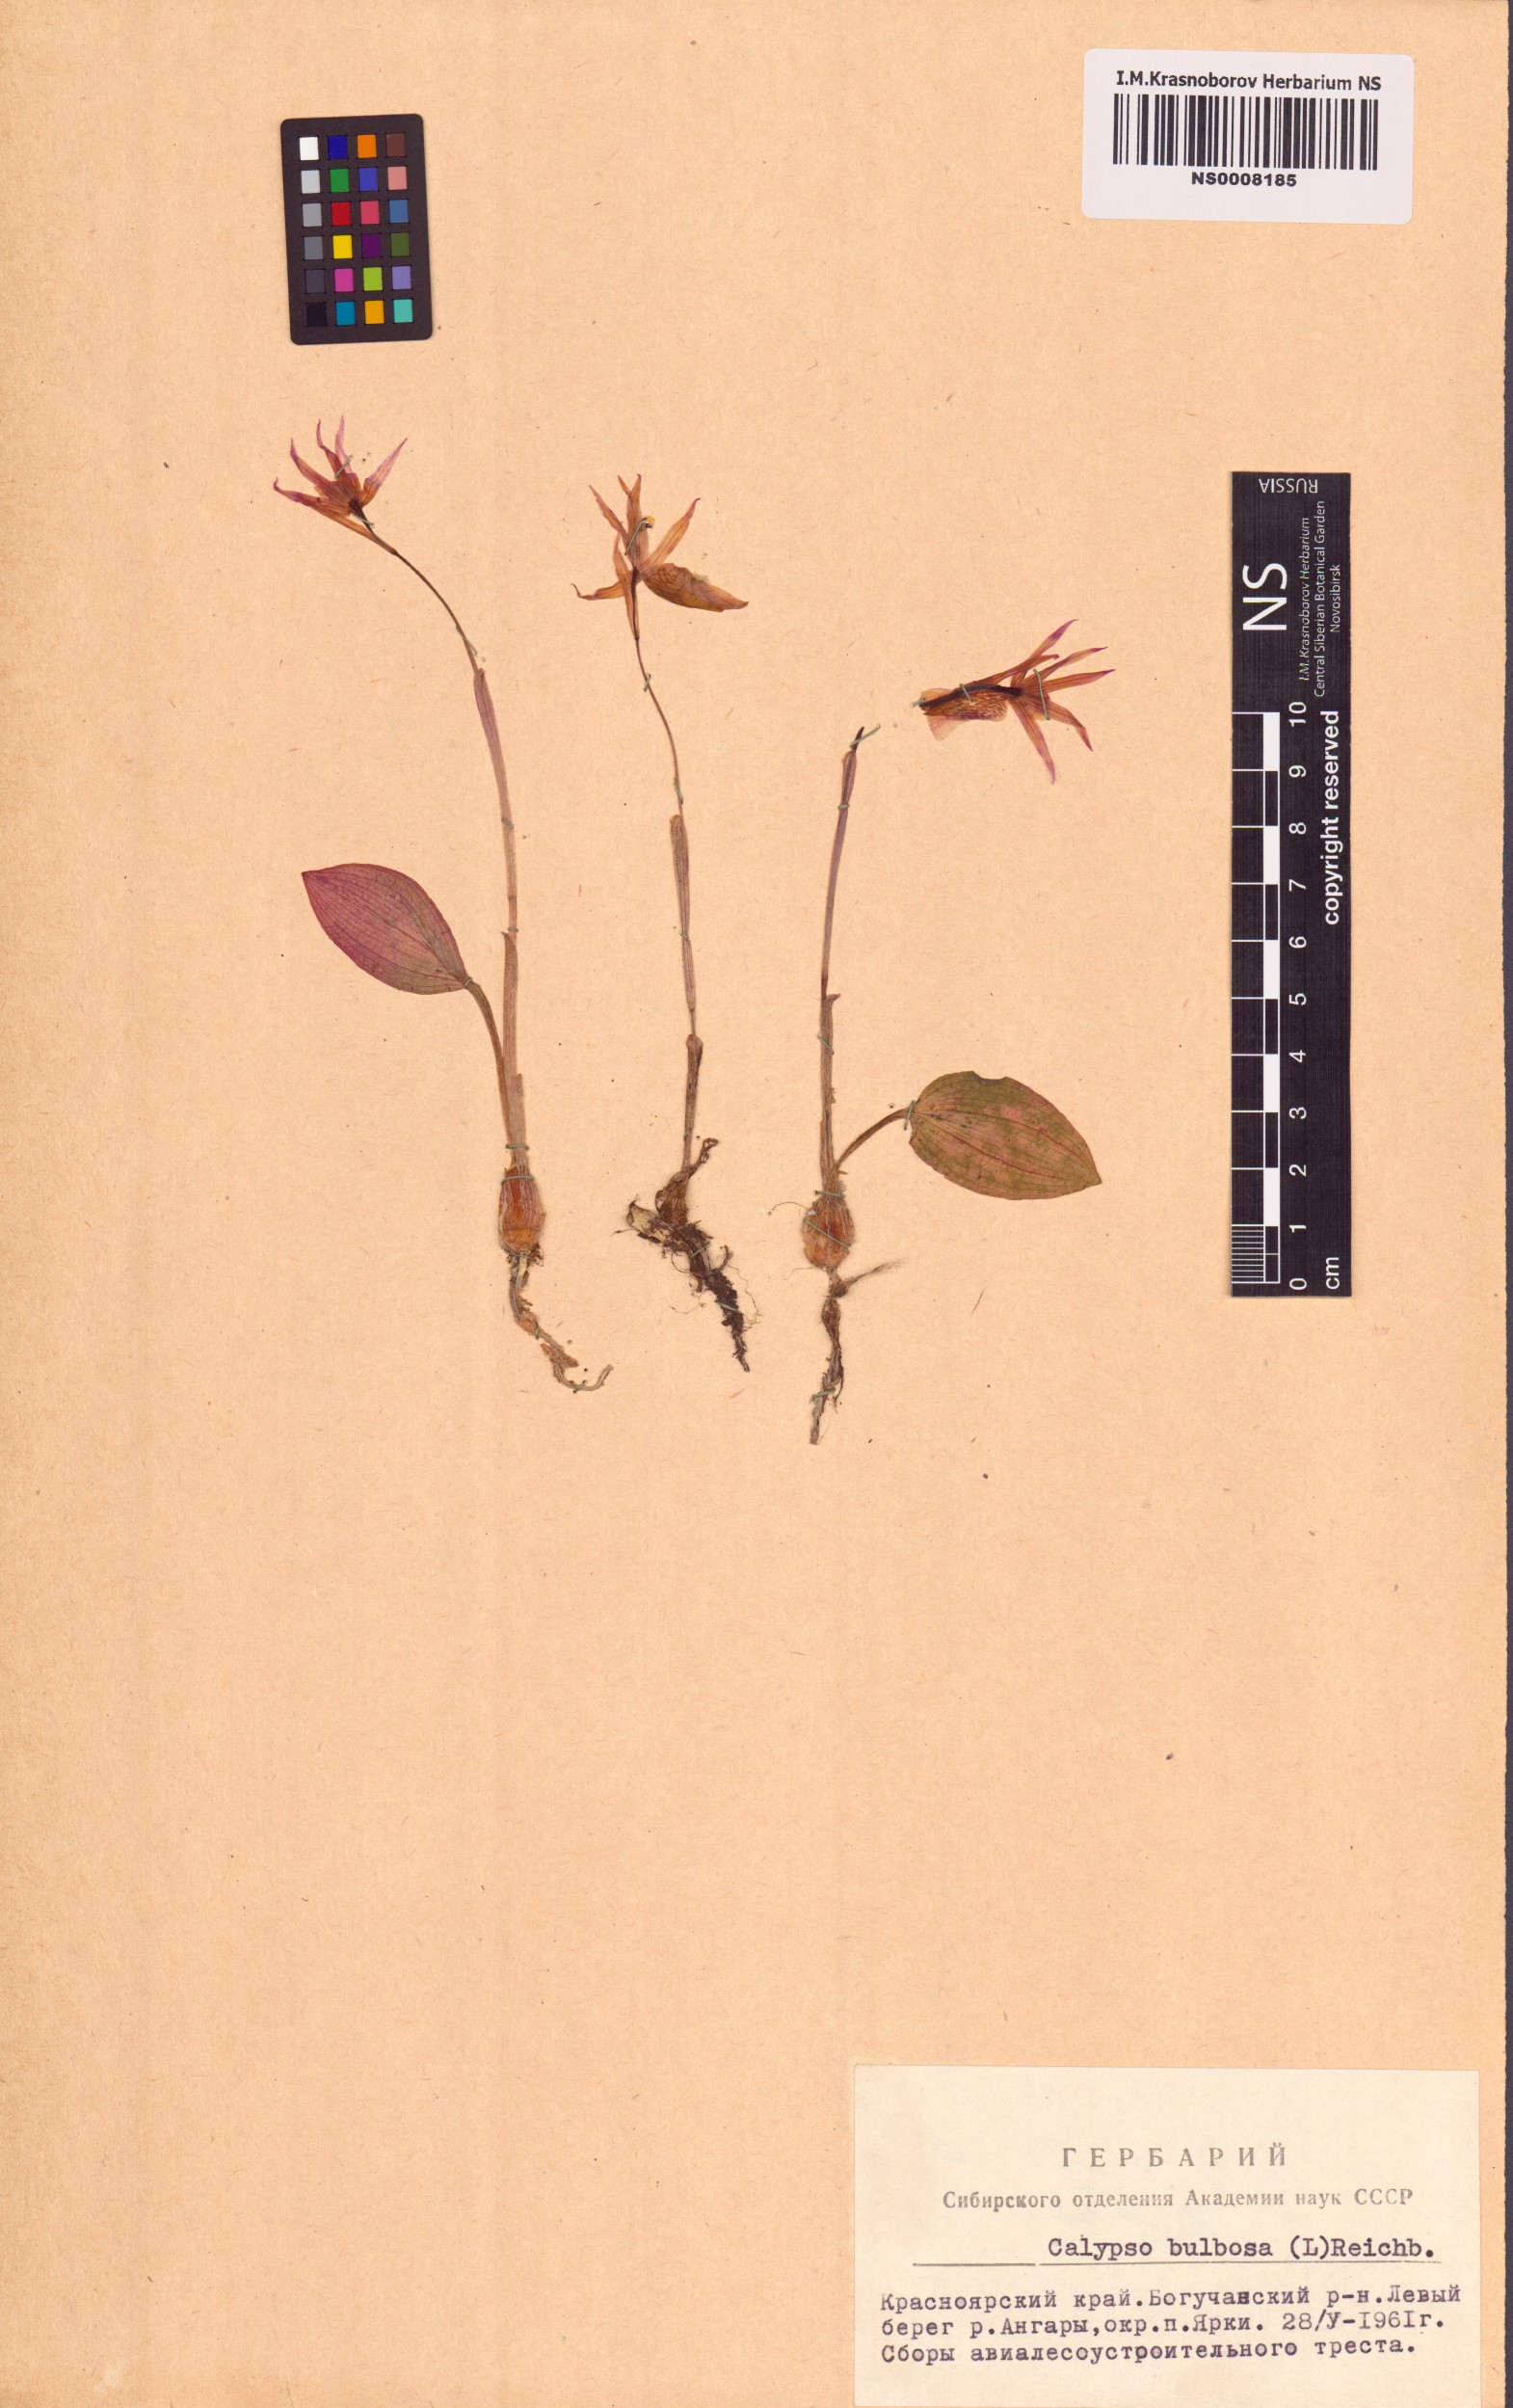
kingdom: Plantae
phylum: Tracheophyta
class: Liliopsida
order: Asparagales
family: Orchidaceae
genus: Calypso
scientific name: Calypso bulbosa
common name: Calypso
